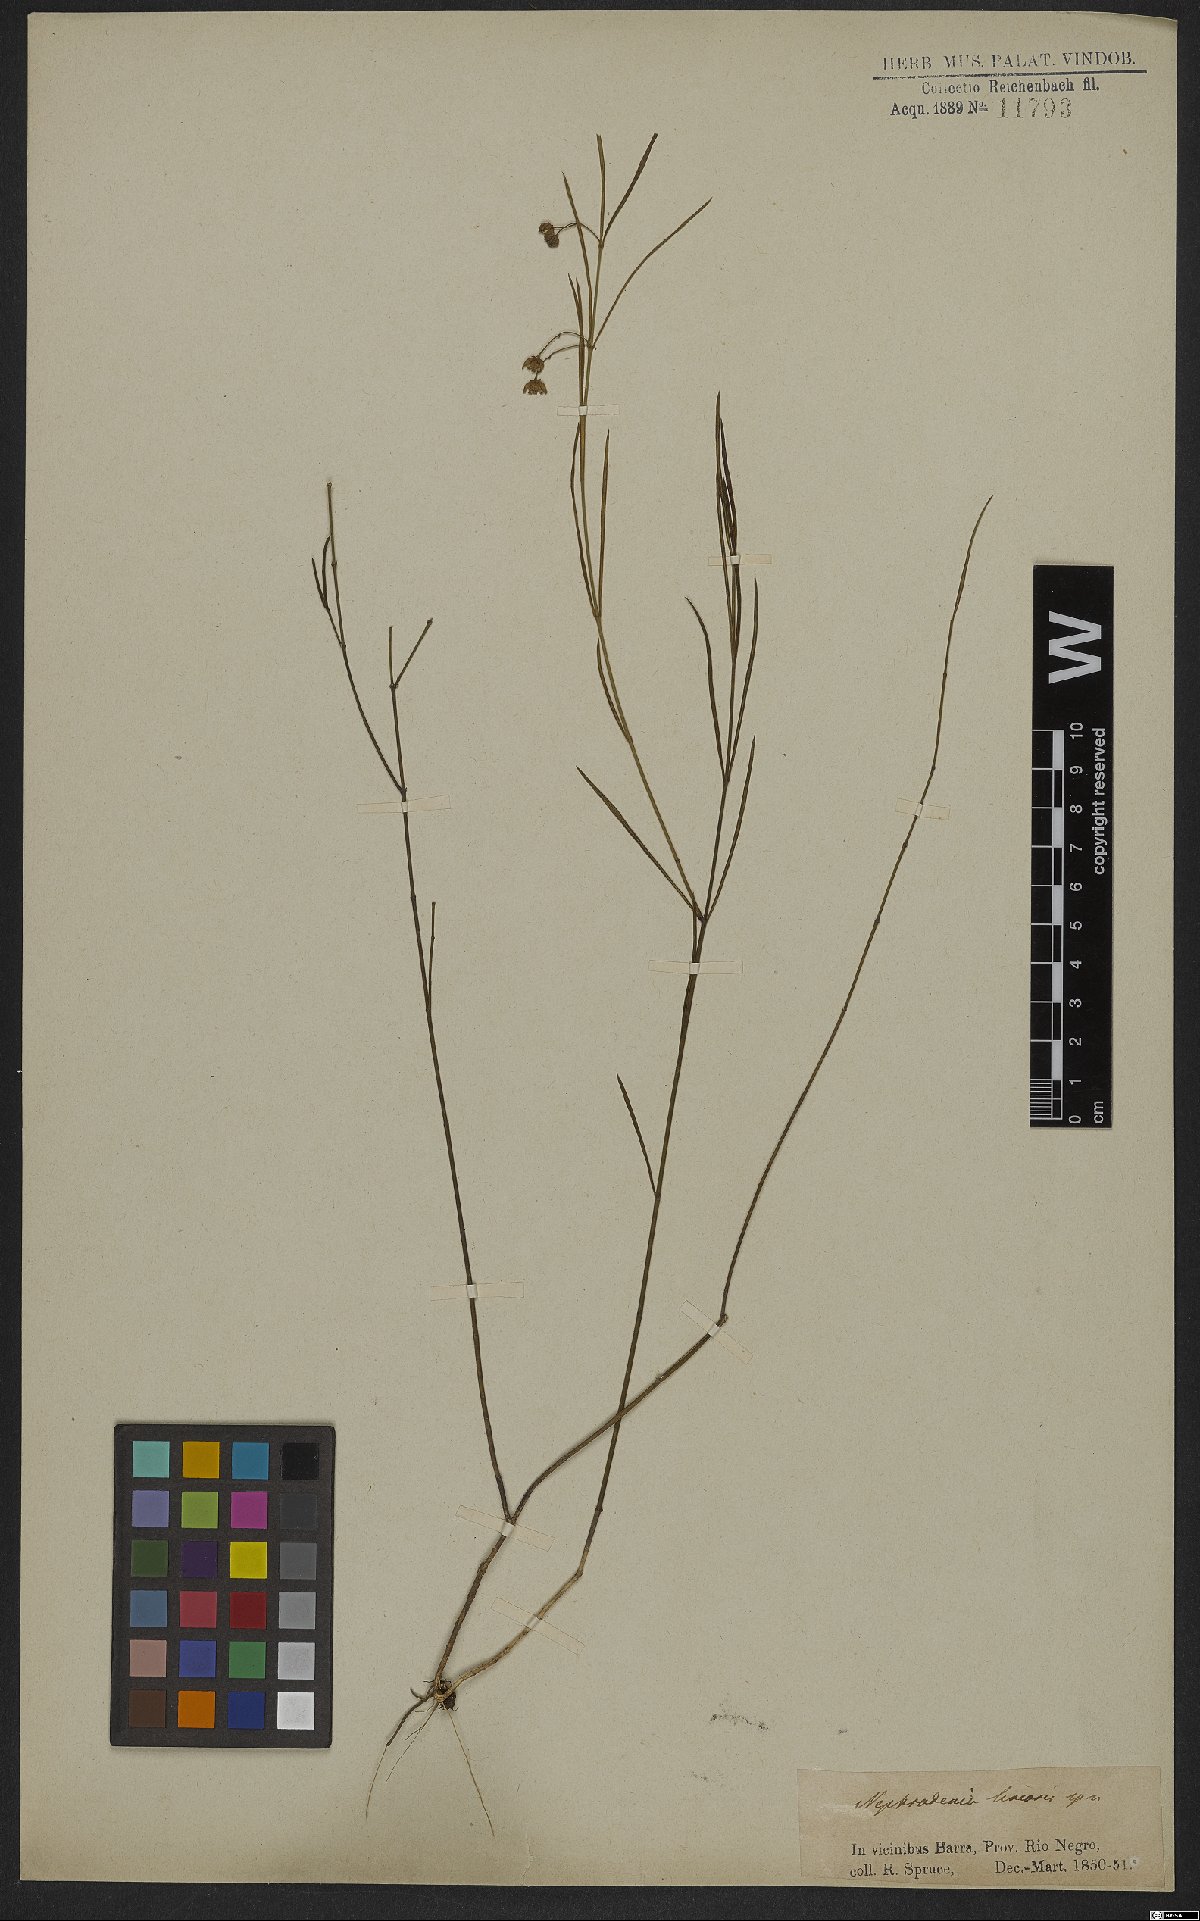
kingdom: Plantae
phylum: Tracheophyta
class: Magnoliopsida
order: Gentianales
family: Apocynaceae
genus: Blepharodon
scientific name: Blepharodon lineare
